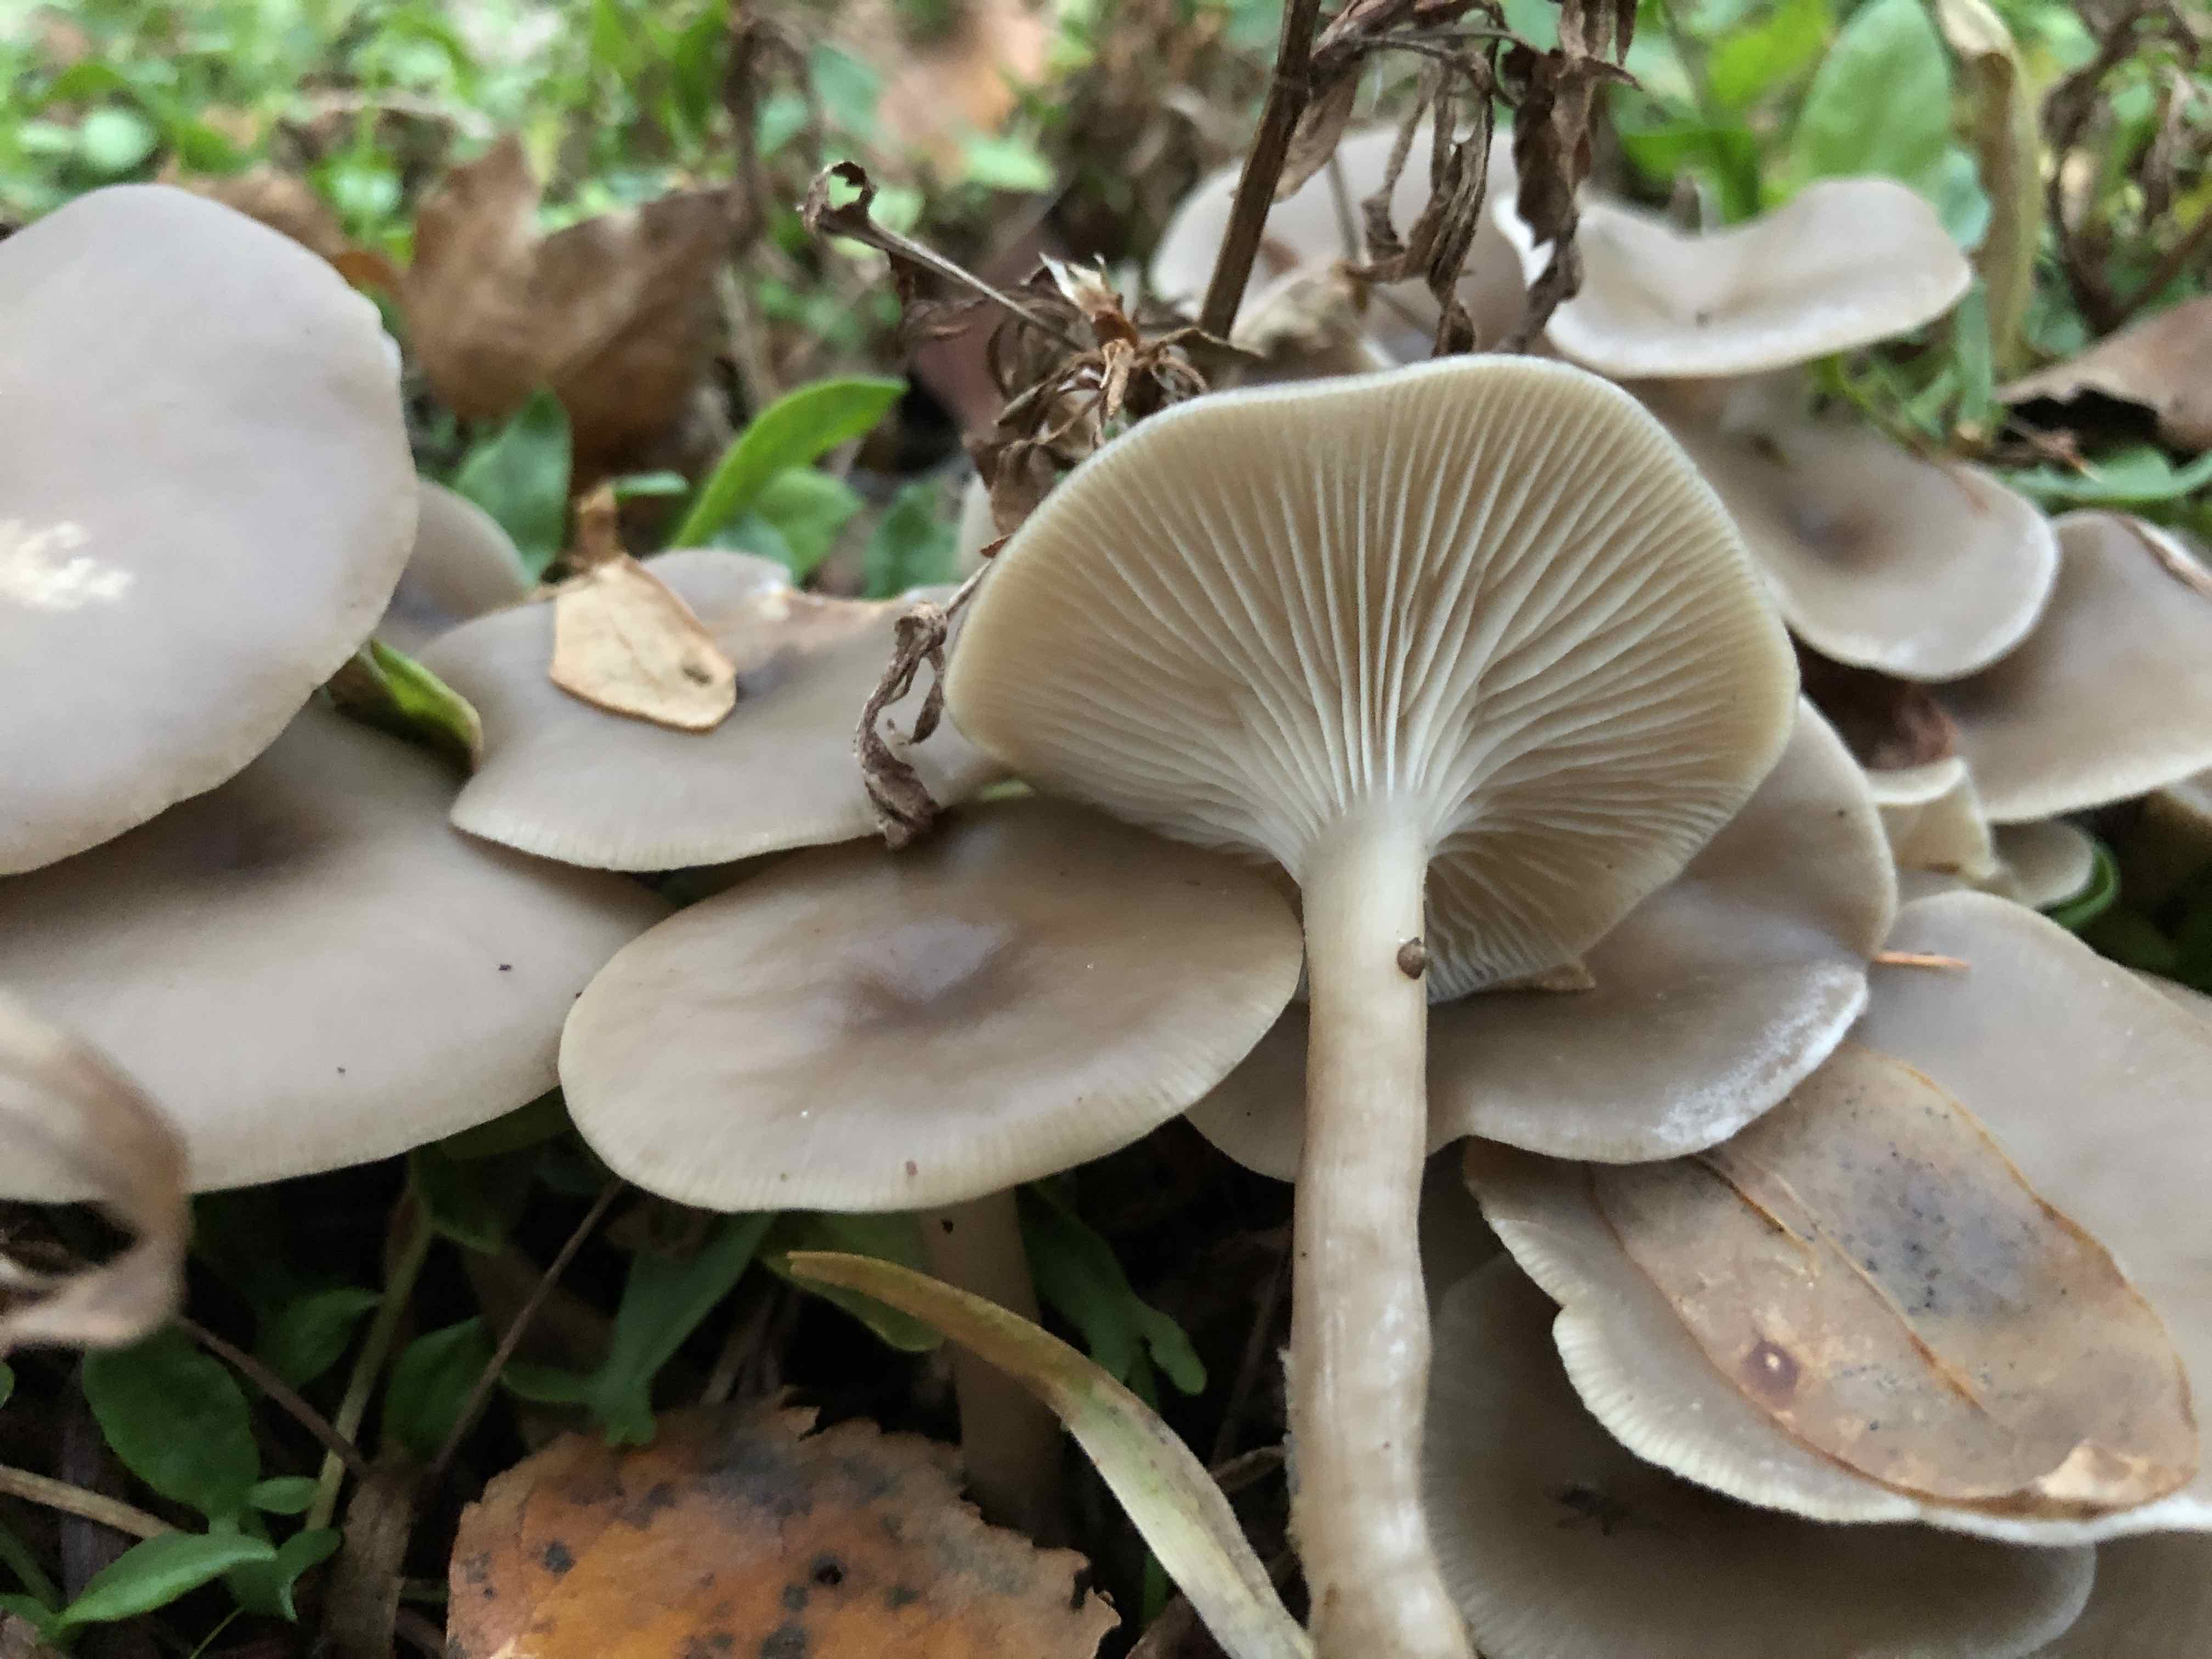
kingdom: Fungi
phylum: Basidiomycota
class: Agaricomycetes
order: Agaricales
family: Tricholomataceae
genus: Clitocybe
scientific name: Clitocybe
